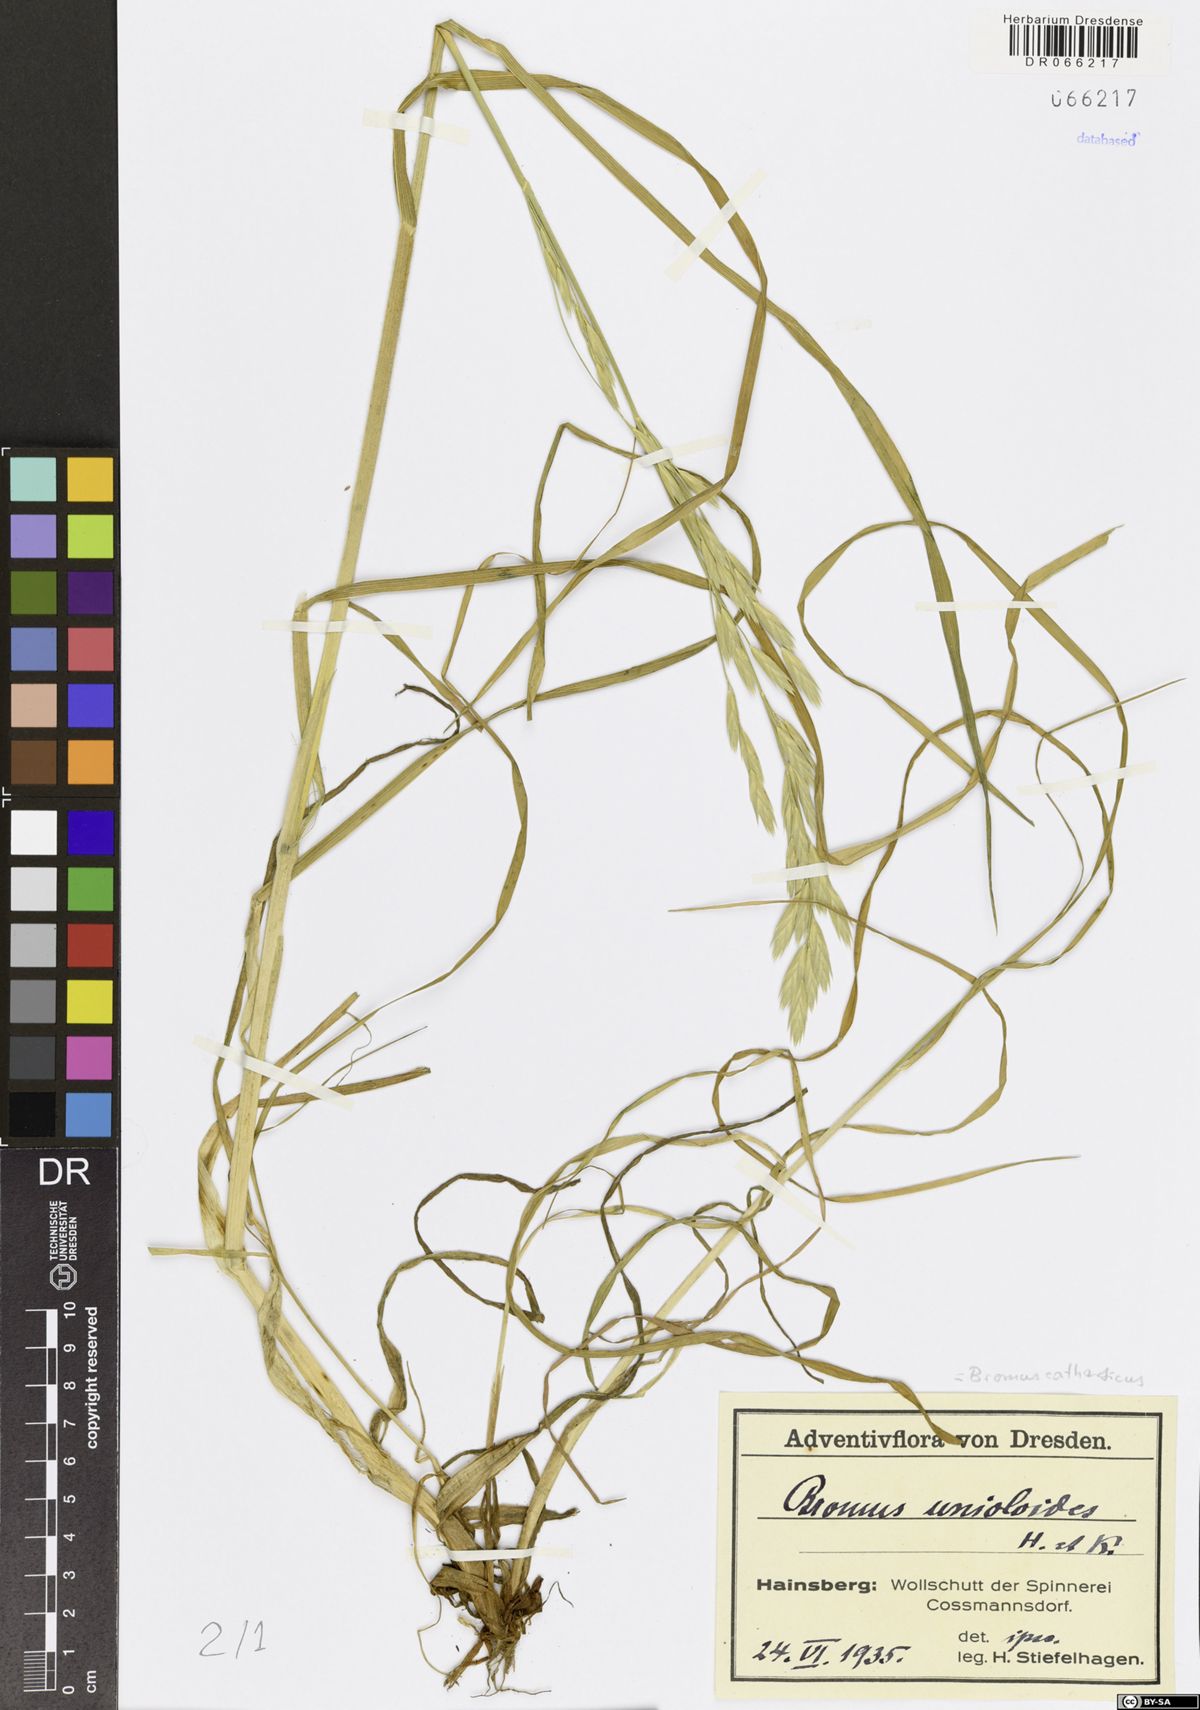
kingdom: Plantae
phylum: Tracheophyta
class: Liliopsida
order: Poales
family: Poaceae
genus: Bromus
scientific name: Bromus catharticus
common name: Rescuegrass
